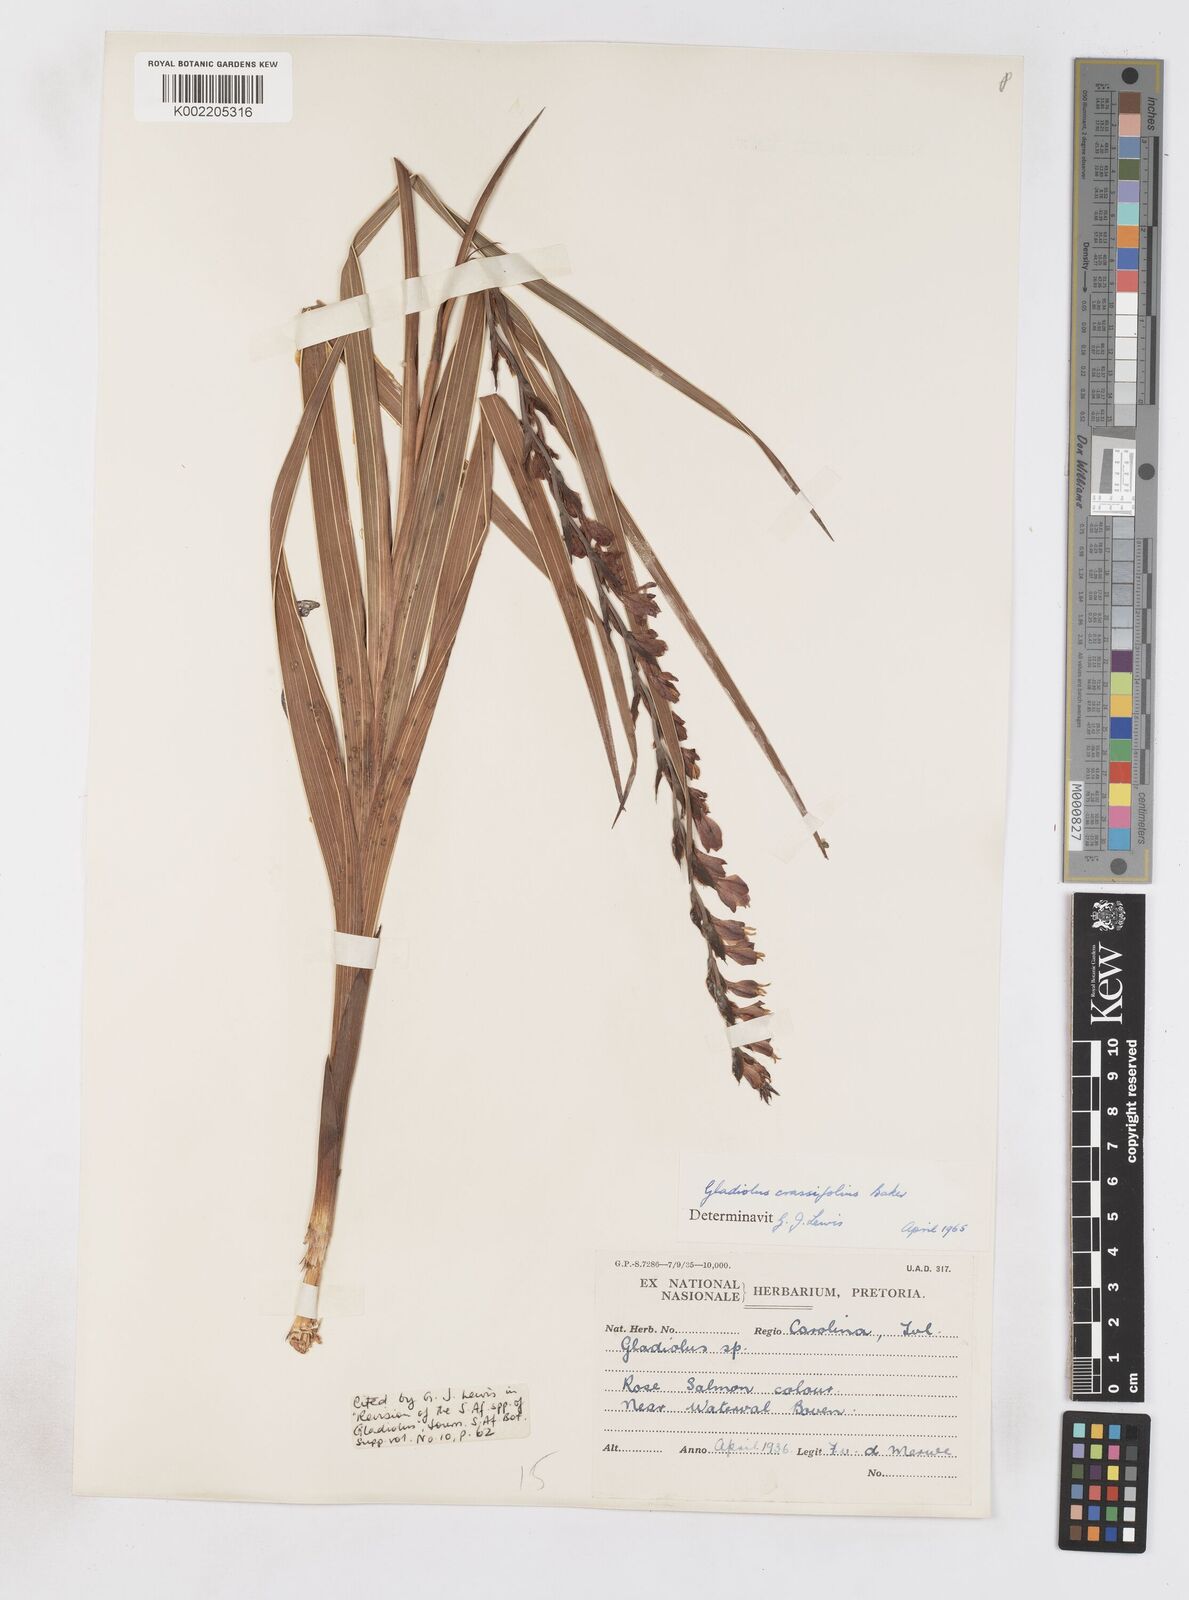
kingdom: Plantae
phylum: Tracheophyta
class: Liliopsida
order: Asparagales
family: Iridaceae
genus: Gladiolus
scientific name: Gladiolus crassifolius
